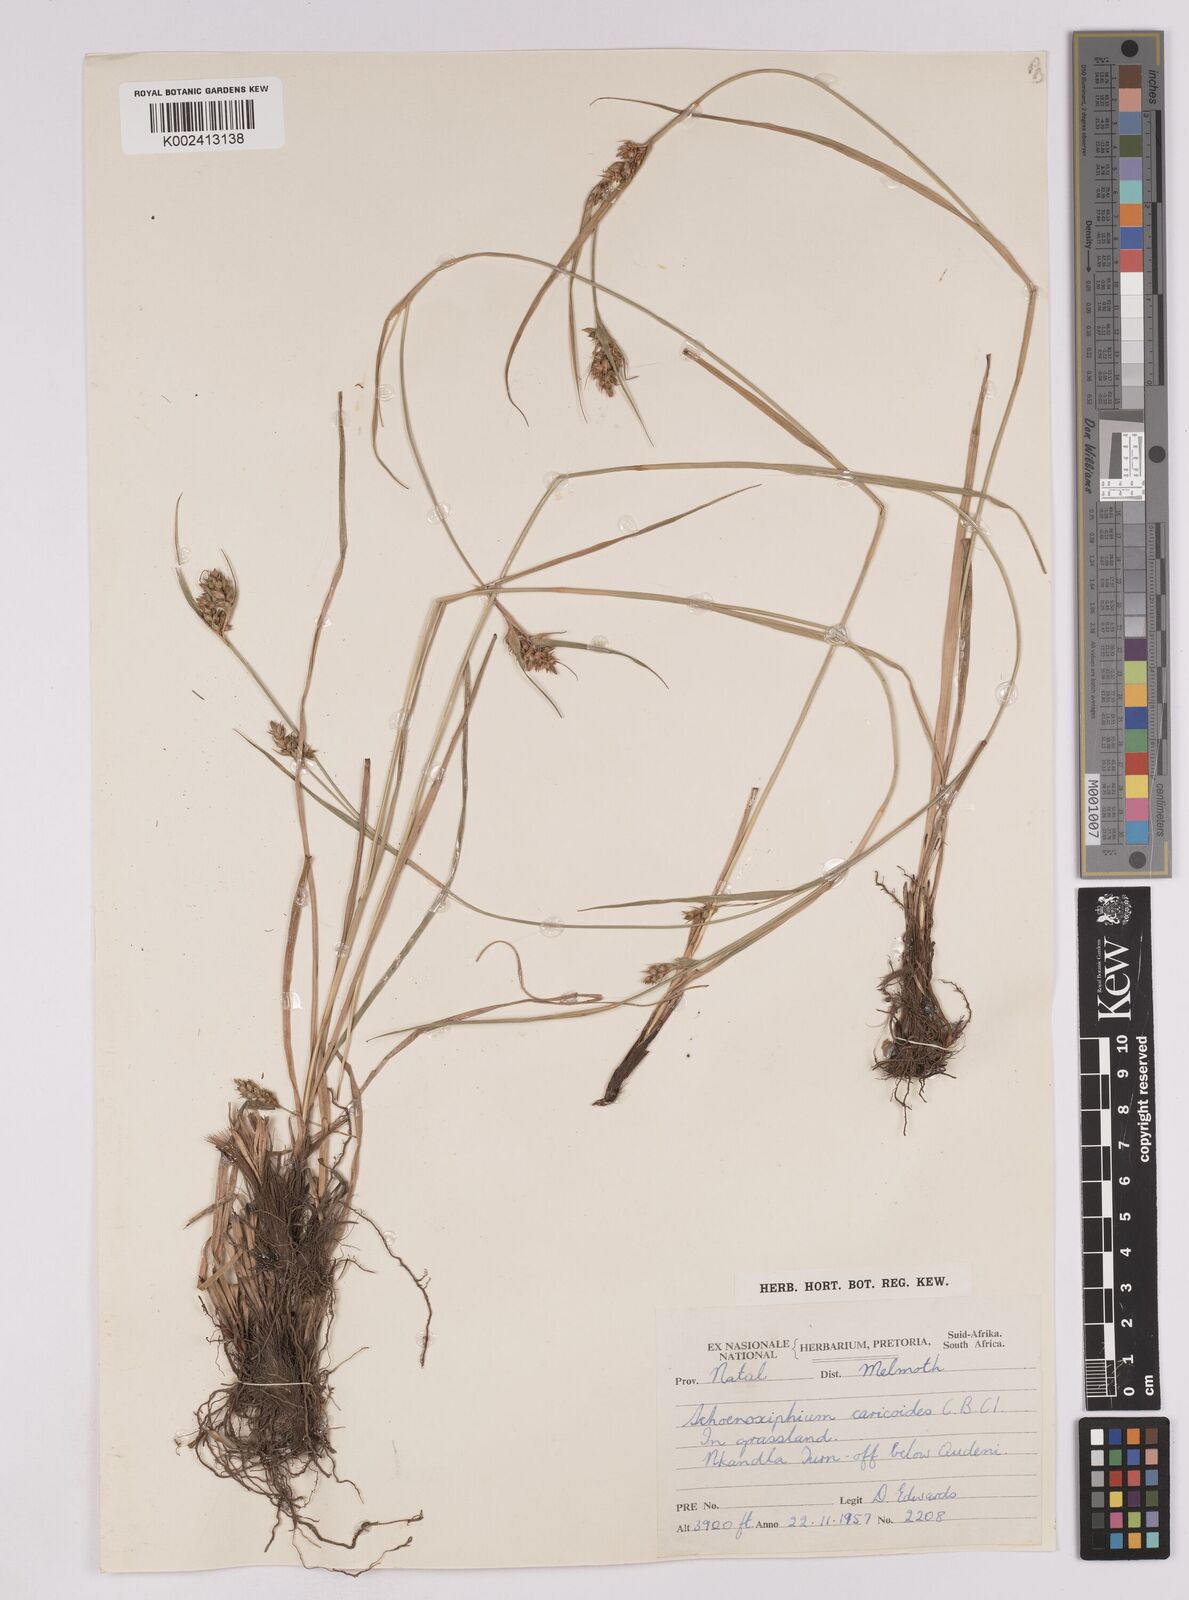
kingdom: Plantae
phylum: Tracheophyta
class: Liliopsida
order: Poales
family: Cyperaceae
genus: Carex
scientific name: Carex spartea
